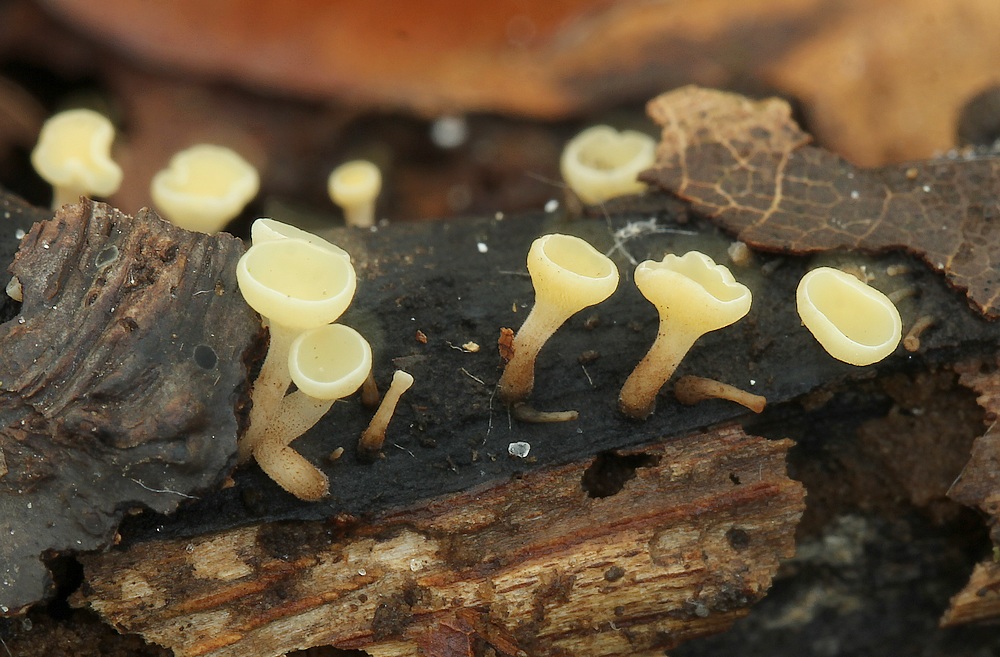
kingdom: Fungi
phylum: Ascomycota
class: Leotiomycetes
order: Helotiales
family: Helotiaceae
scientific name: Helotiaceae
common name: stilkskivefamilien
